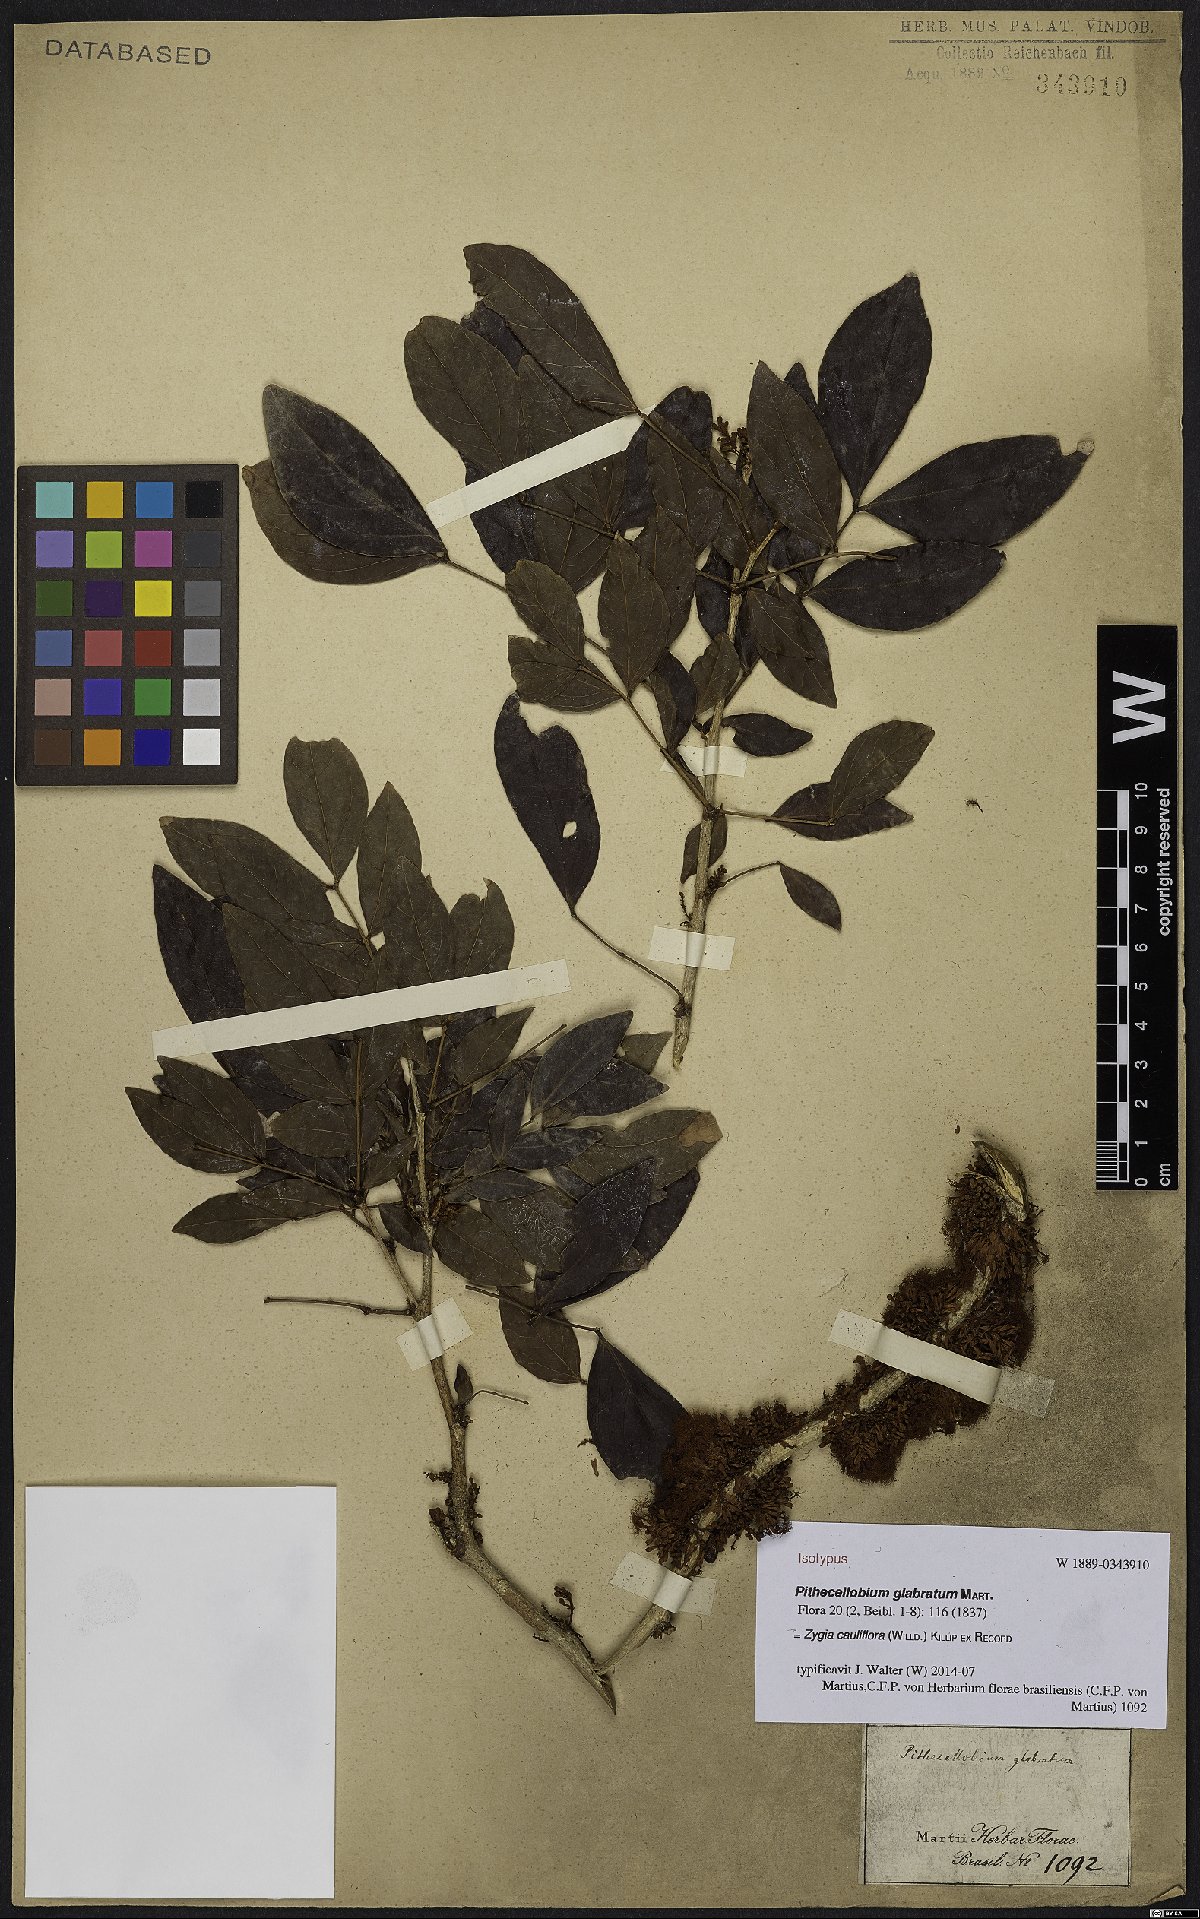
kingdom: Plantae
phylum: Tracheophyta
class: Magnoliopsida
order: Fabales
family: Fabaceae
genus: Zygia
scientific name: Zygia cauliflora
